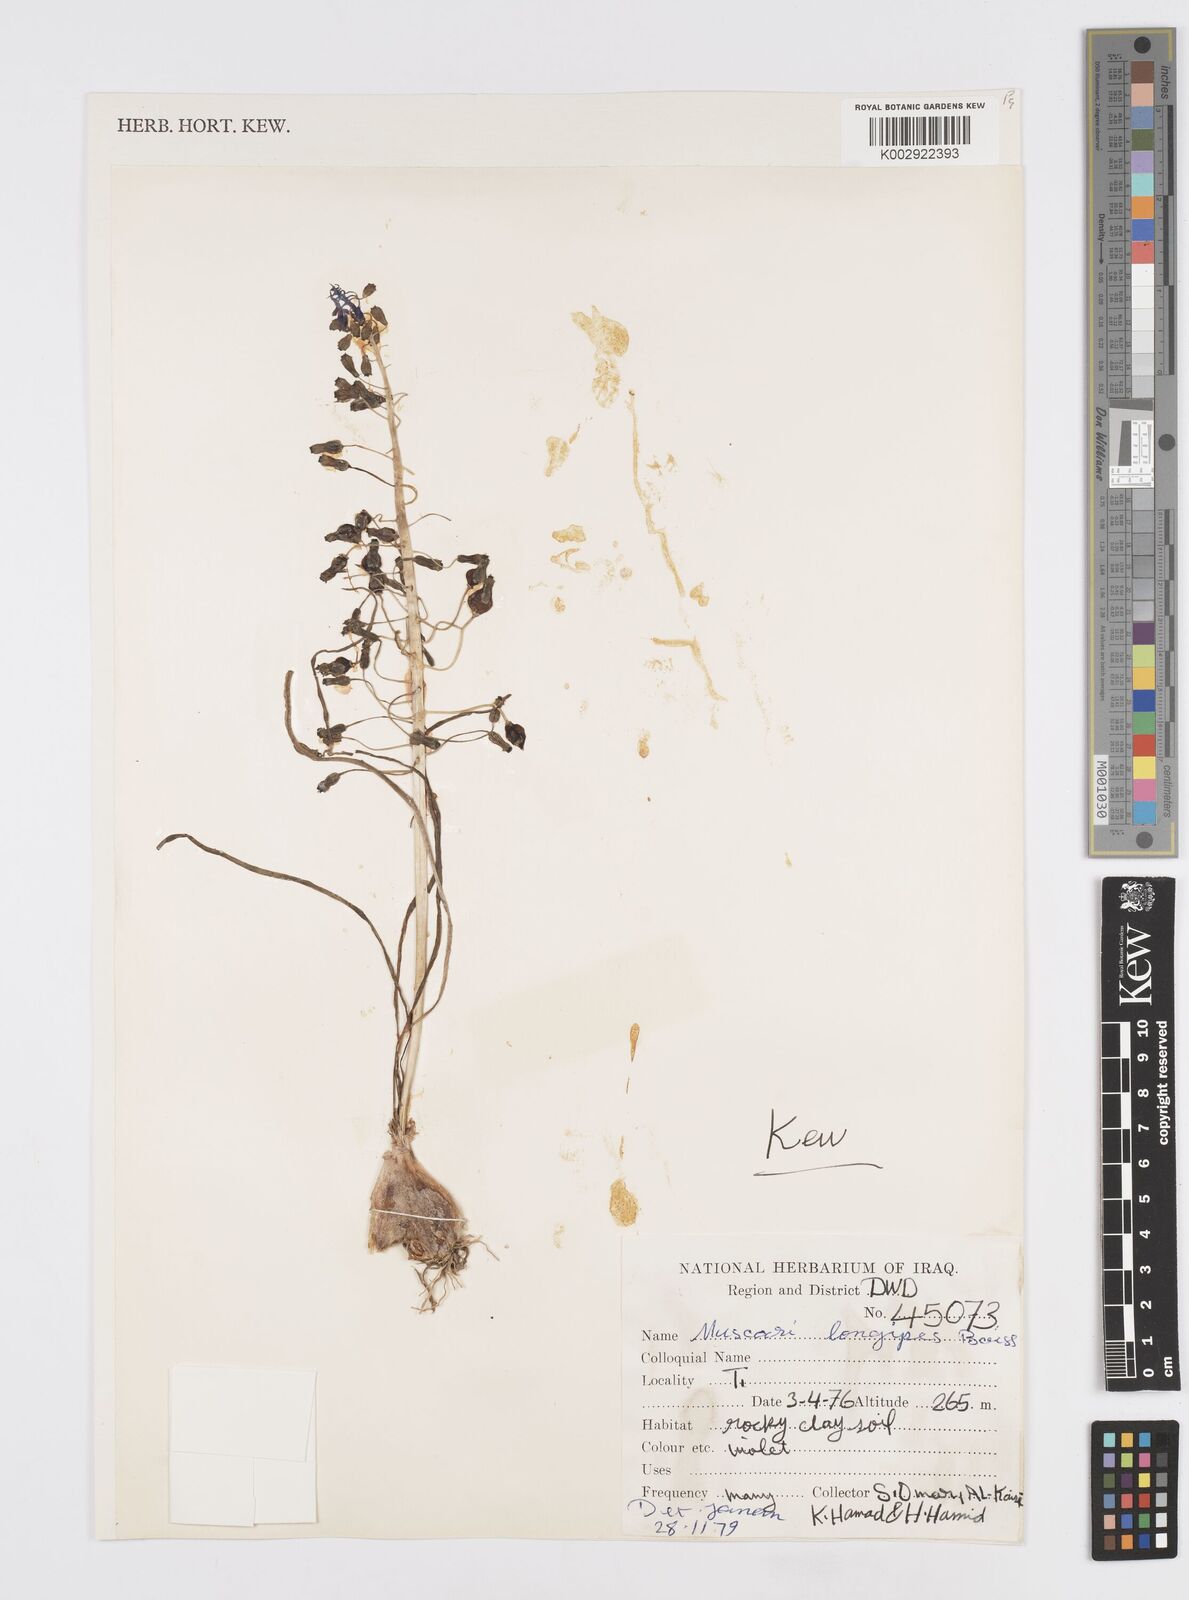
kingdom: Plantae
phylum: Tracheophyta
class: Liliopsida
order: Asparagales
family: Asparagaceae
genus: Muscari
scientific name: Muscari longipes
